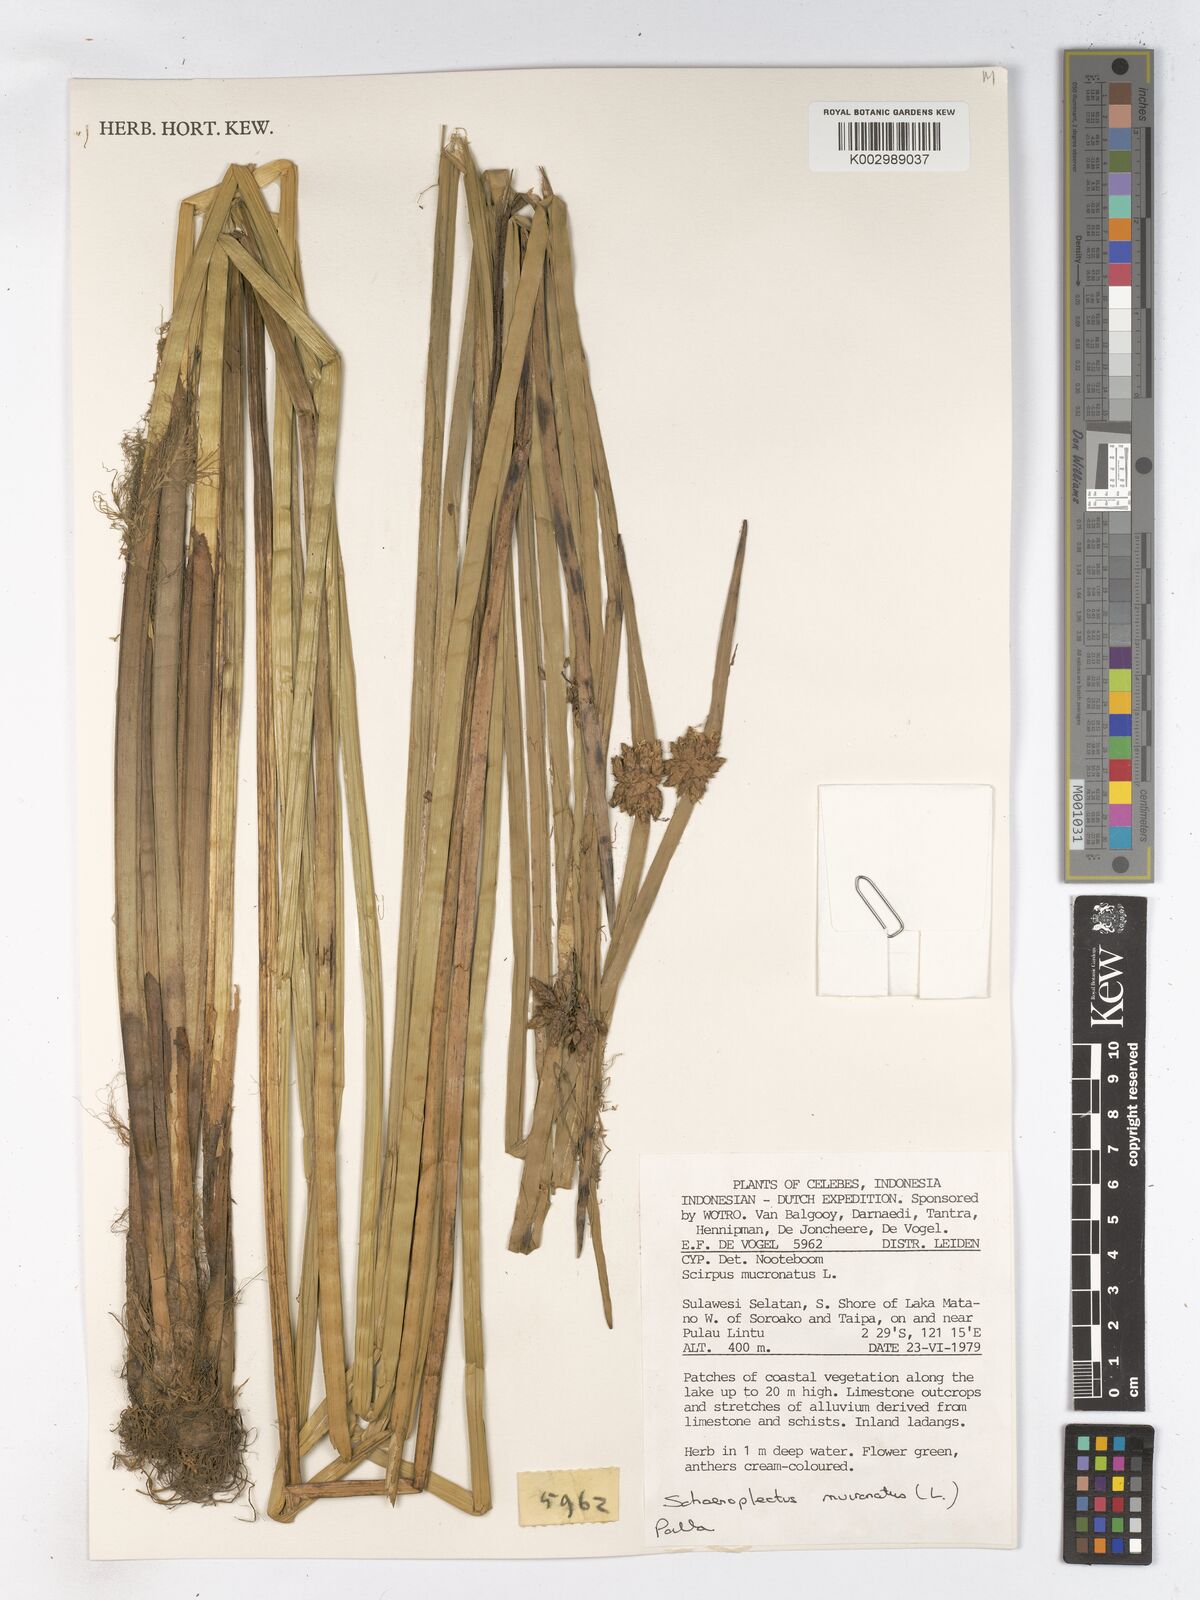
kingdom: Plantae
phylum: Tracheophyta
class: Liliopsida
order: Poales
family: Cyperaceae
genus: Schoenoplectiella
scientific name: Schoenoplectiella mucronata
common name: Bog bulrush
